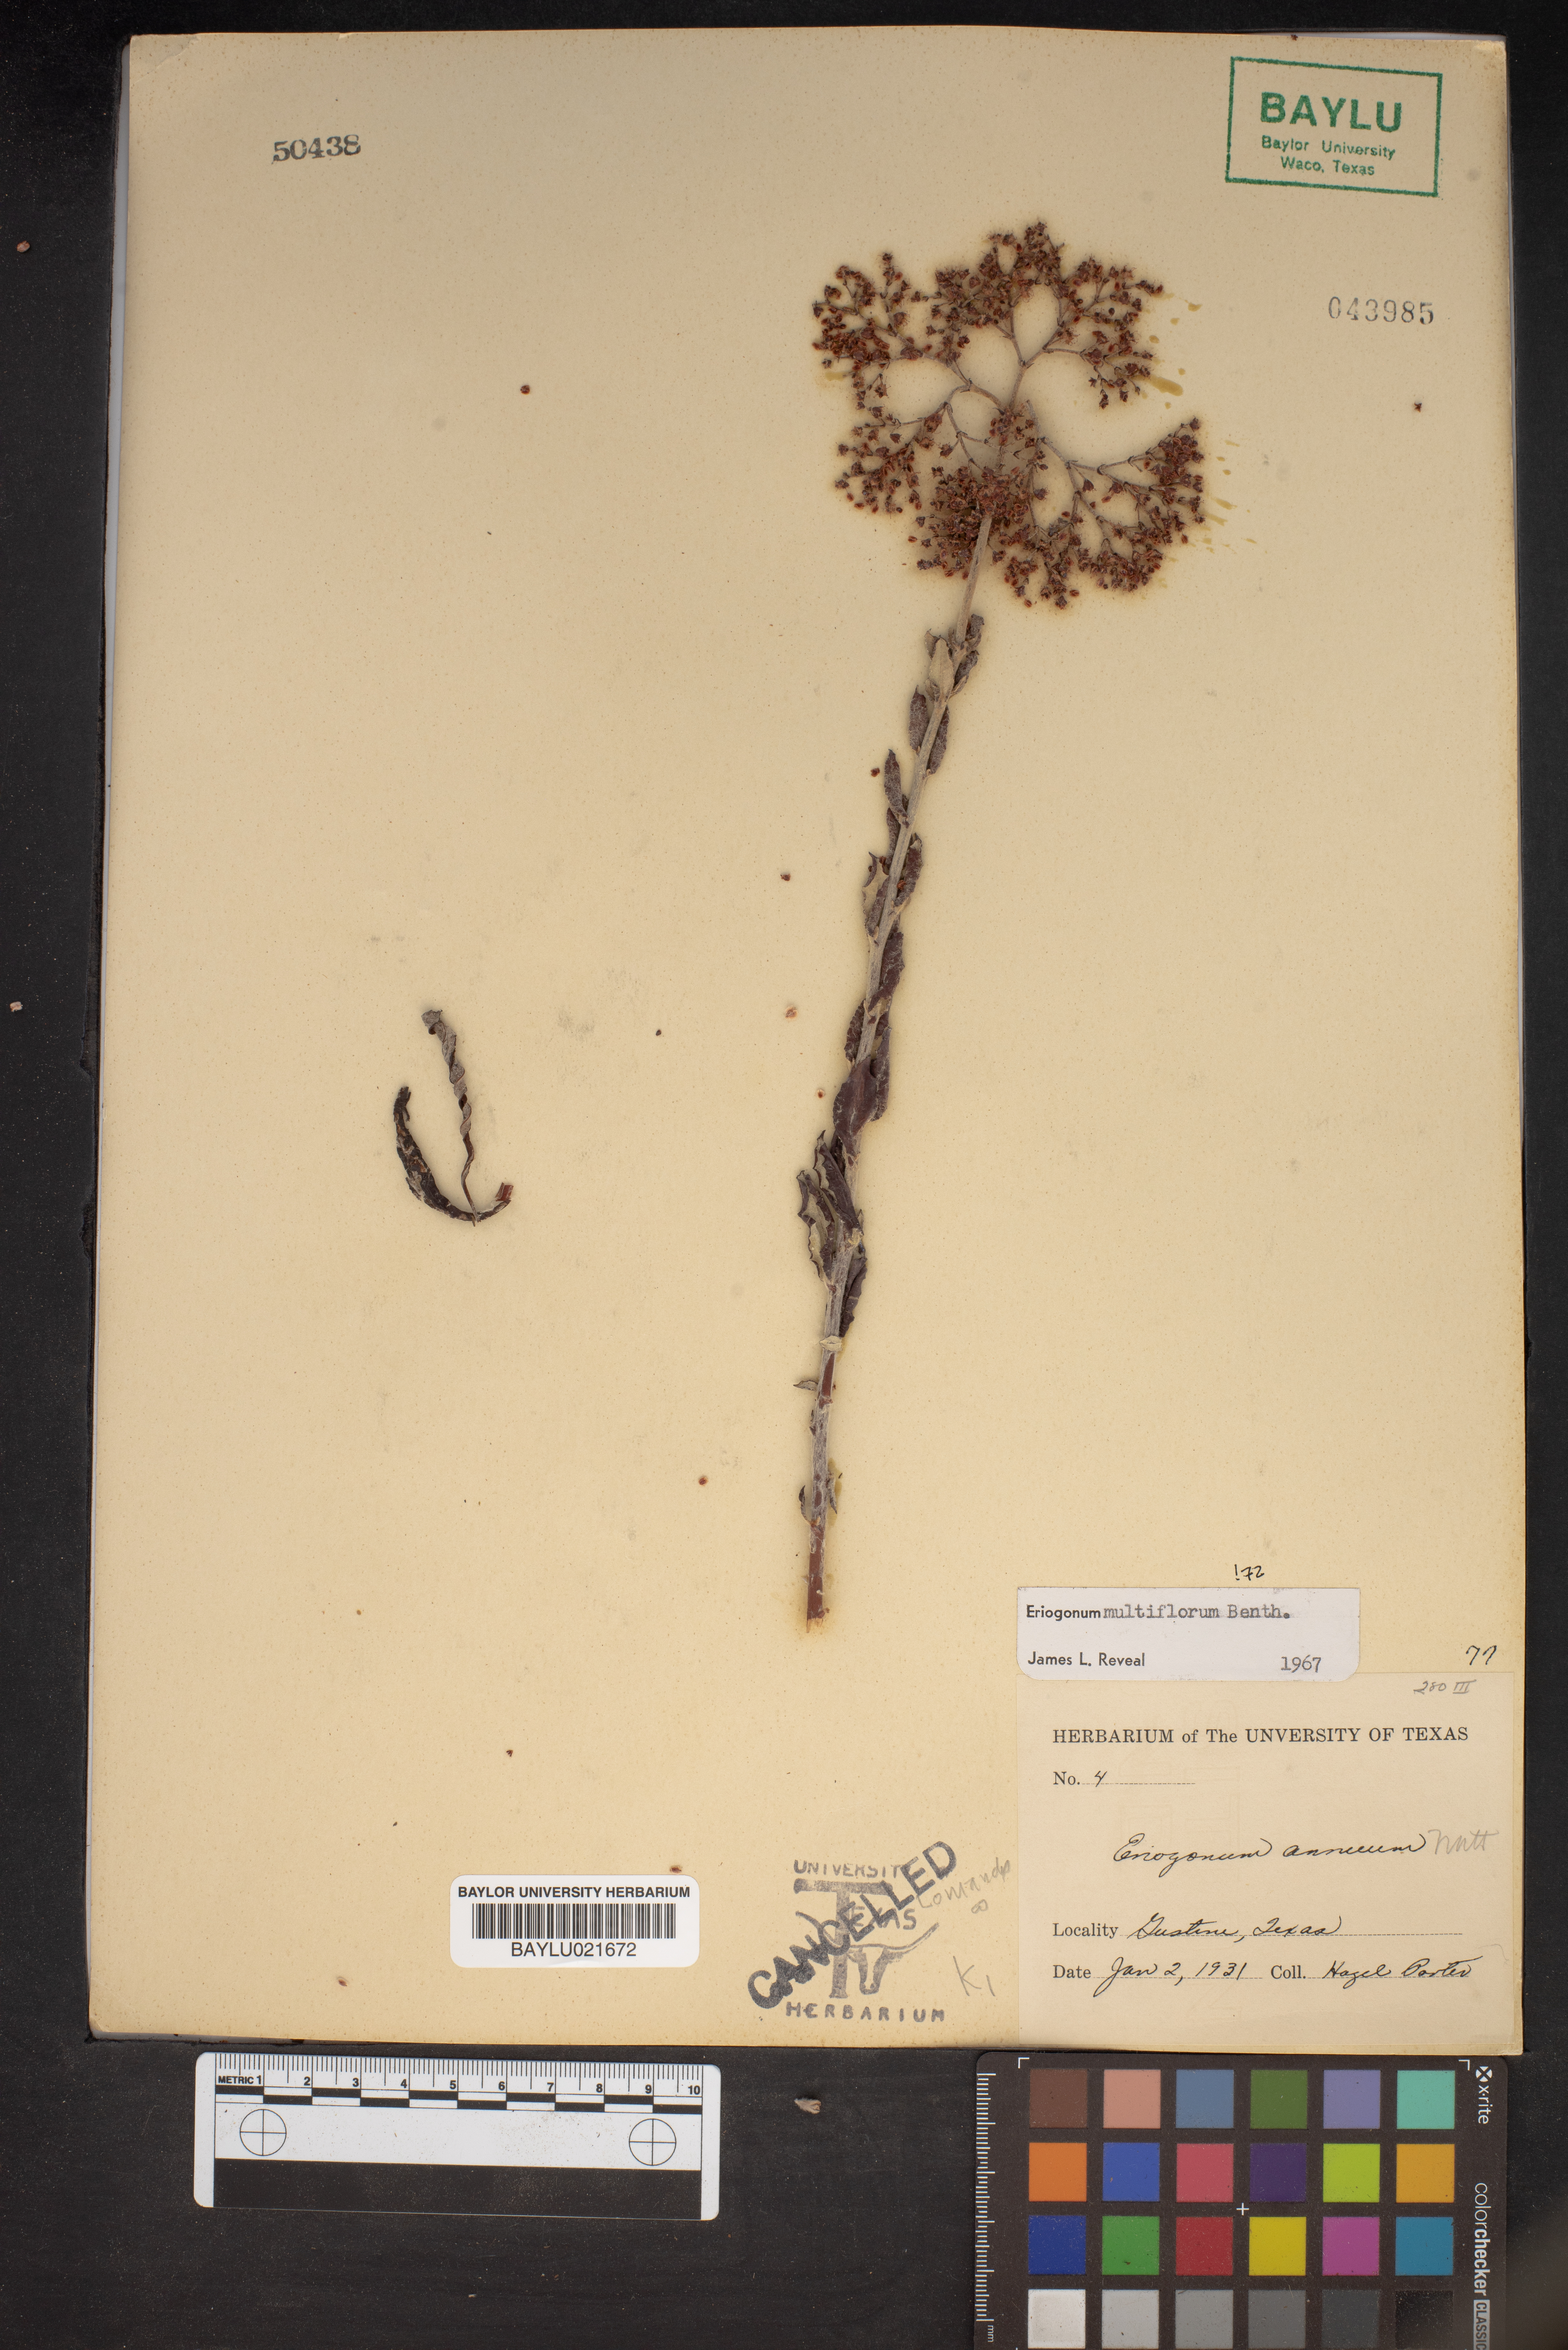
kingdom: Plantae
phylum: Tracheophyta
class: Magnoliopsida
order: Caryophyllales
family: Polygonaceae
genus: Eriogonum
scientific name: Eriogonum multiflorum
